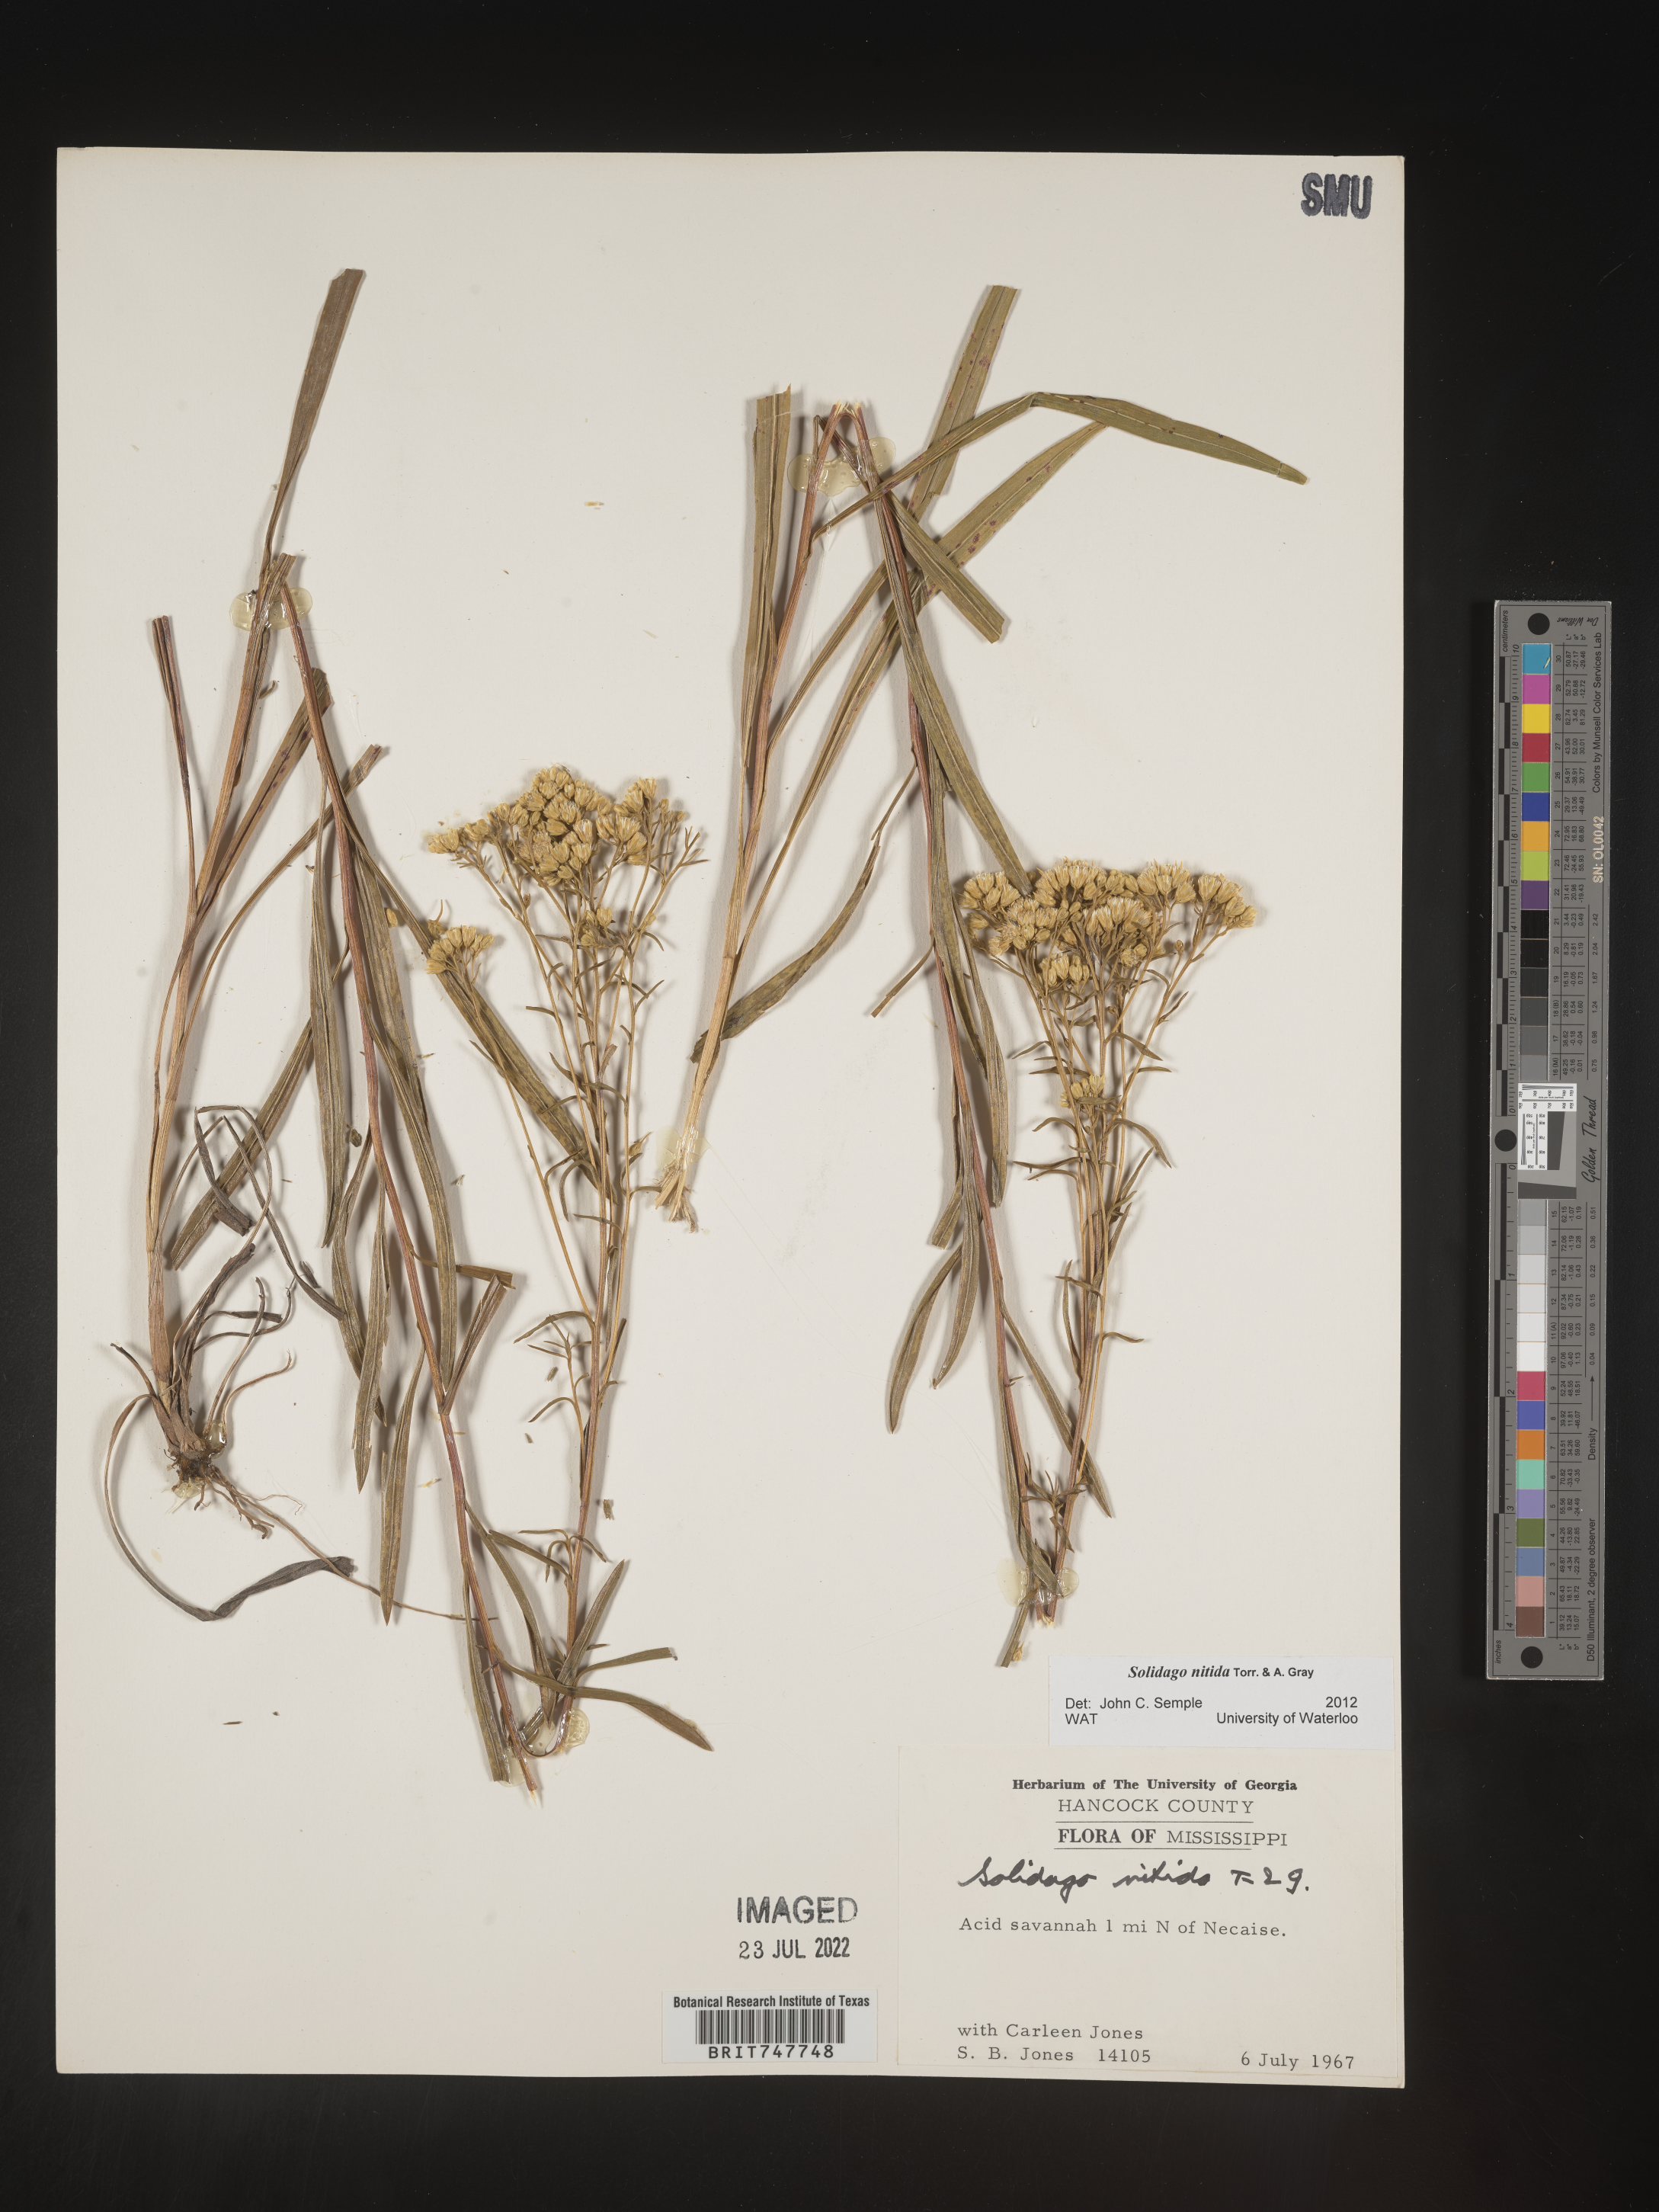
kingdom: Plantae
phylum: Tracheophyta
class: Magnoliopsida
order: Asterales
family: Asteraceae
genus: Solidago
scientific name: Solidago nitida
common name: Shiny goldenrod
